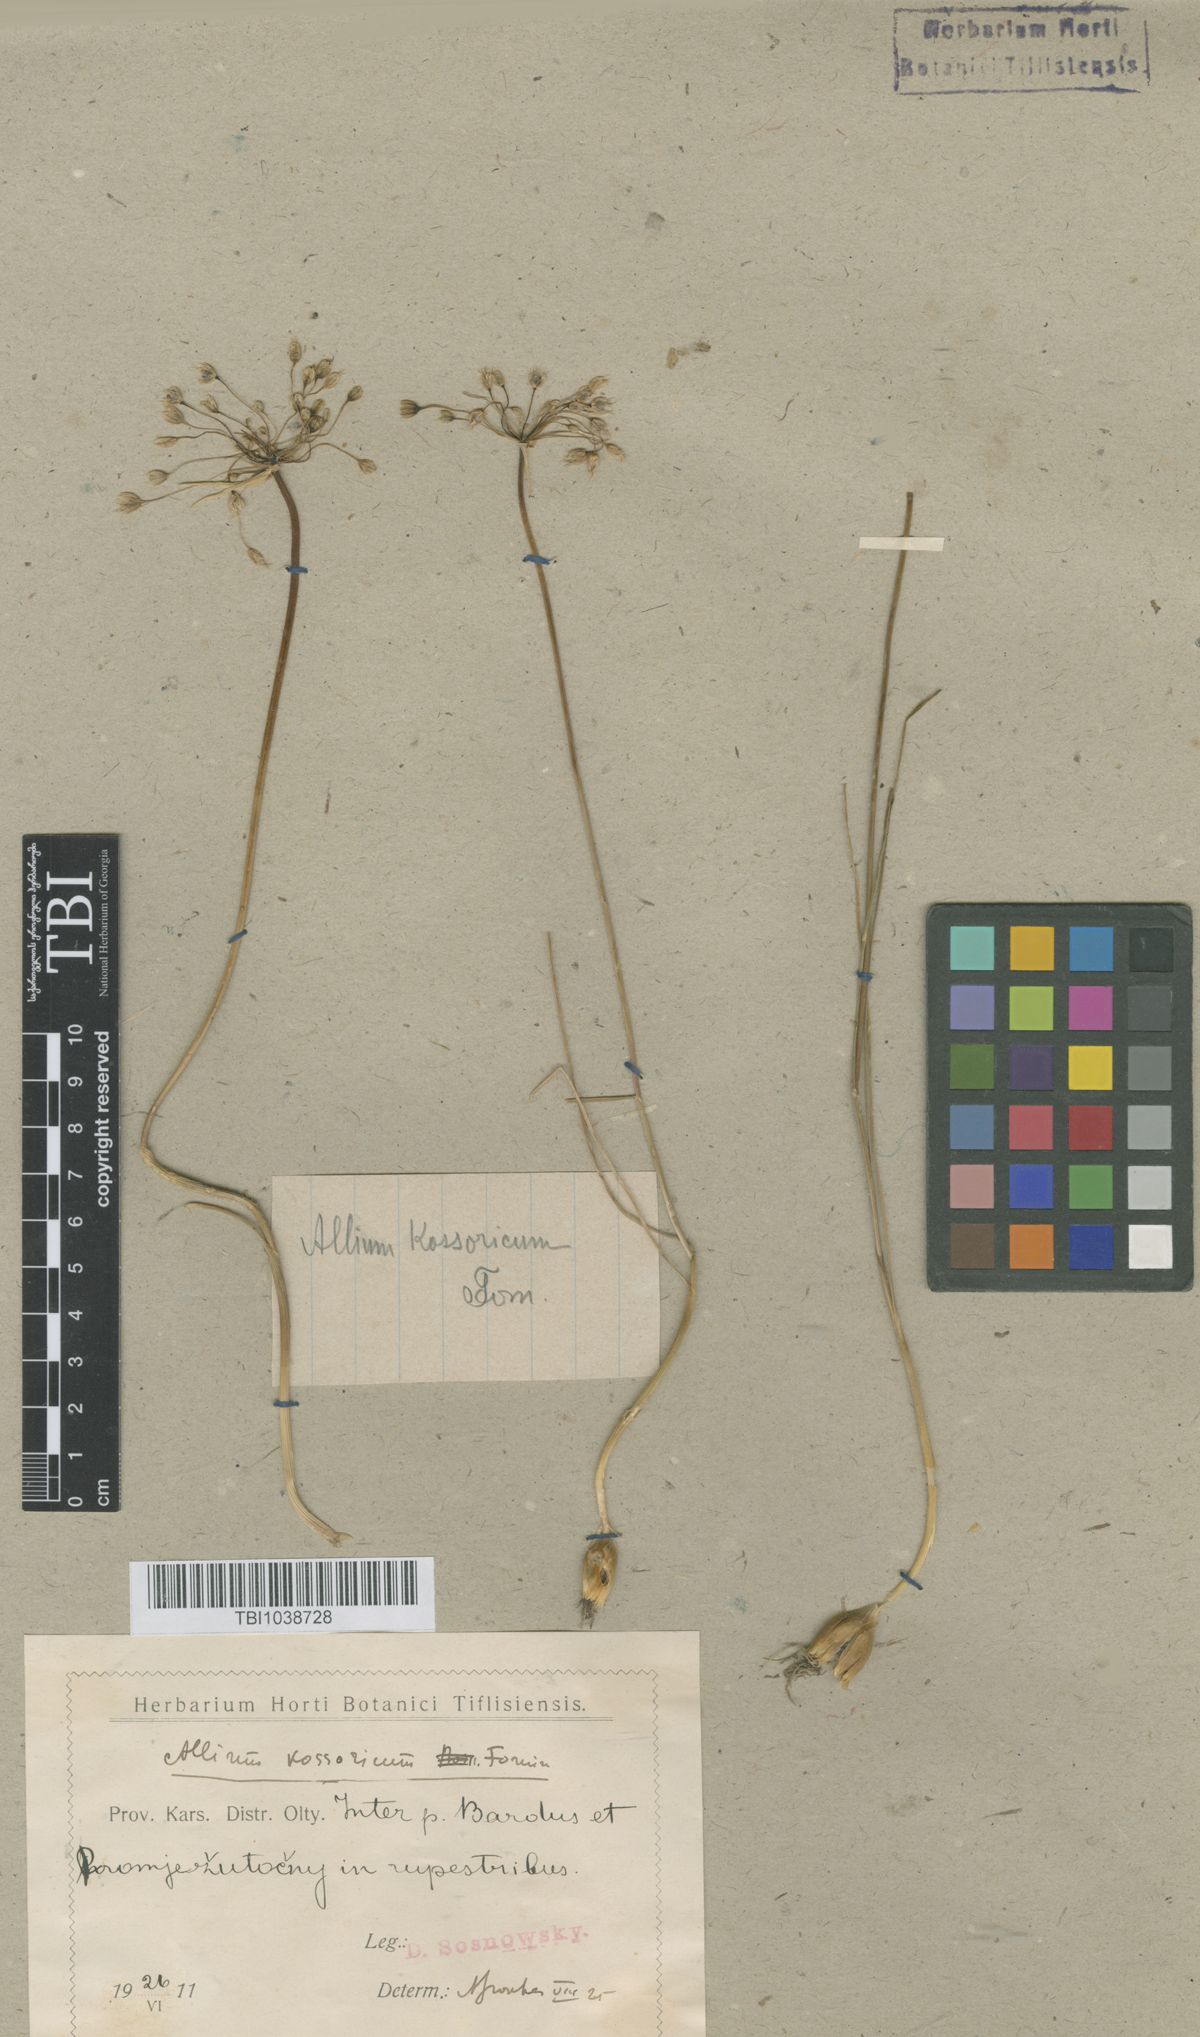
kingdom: Plantae
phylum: Tracheophyta
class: Liliopsida
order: Asparagales
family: Amaryllidaceae
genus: Allium
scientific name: Allium kossoricum
